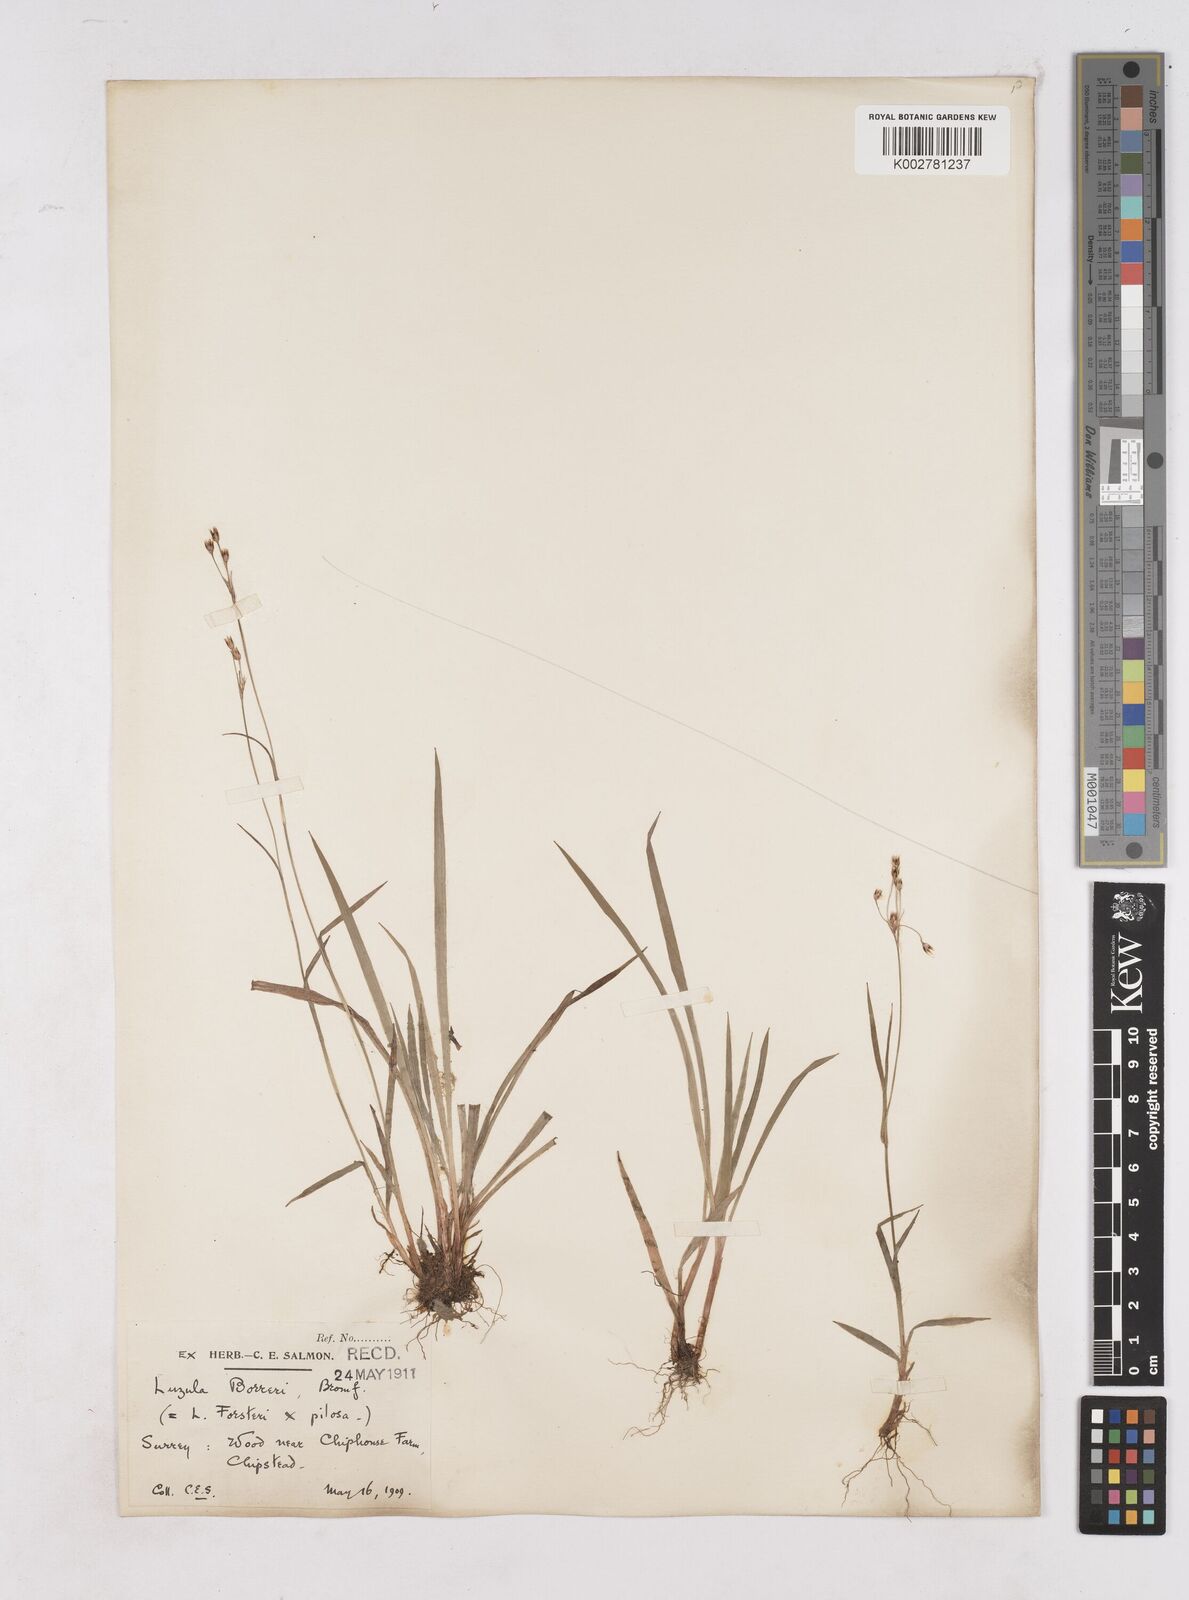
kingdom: Plantae
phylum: Tracheophyta
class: Liliopsida
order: Poales
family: Juncaceae
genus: Luzula
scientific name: Luzula forsteri
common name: Southern wood-rush
